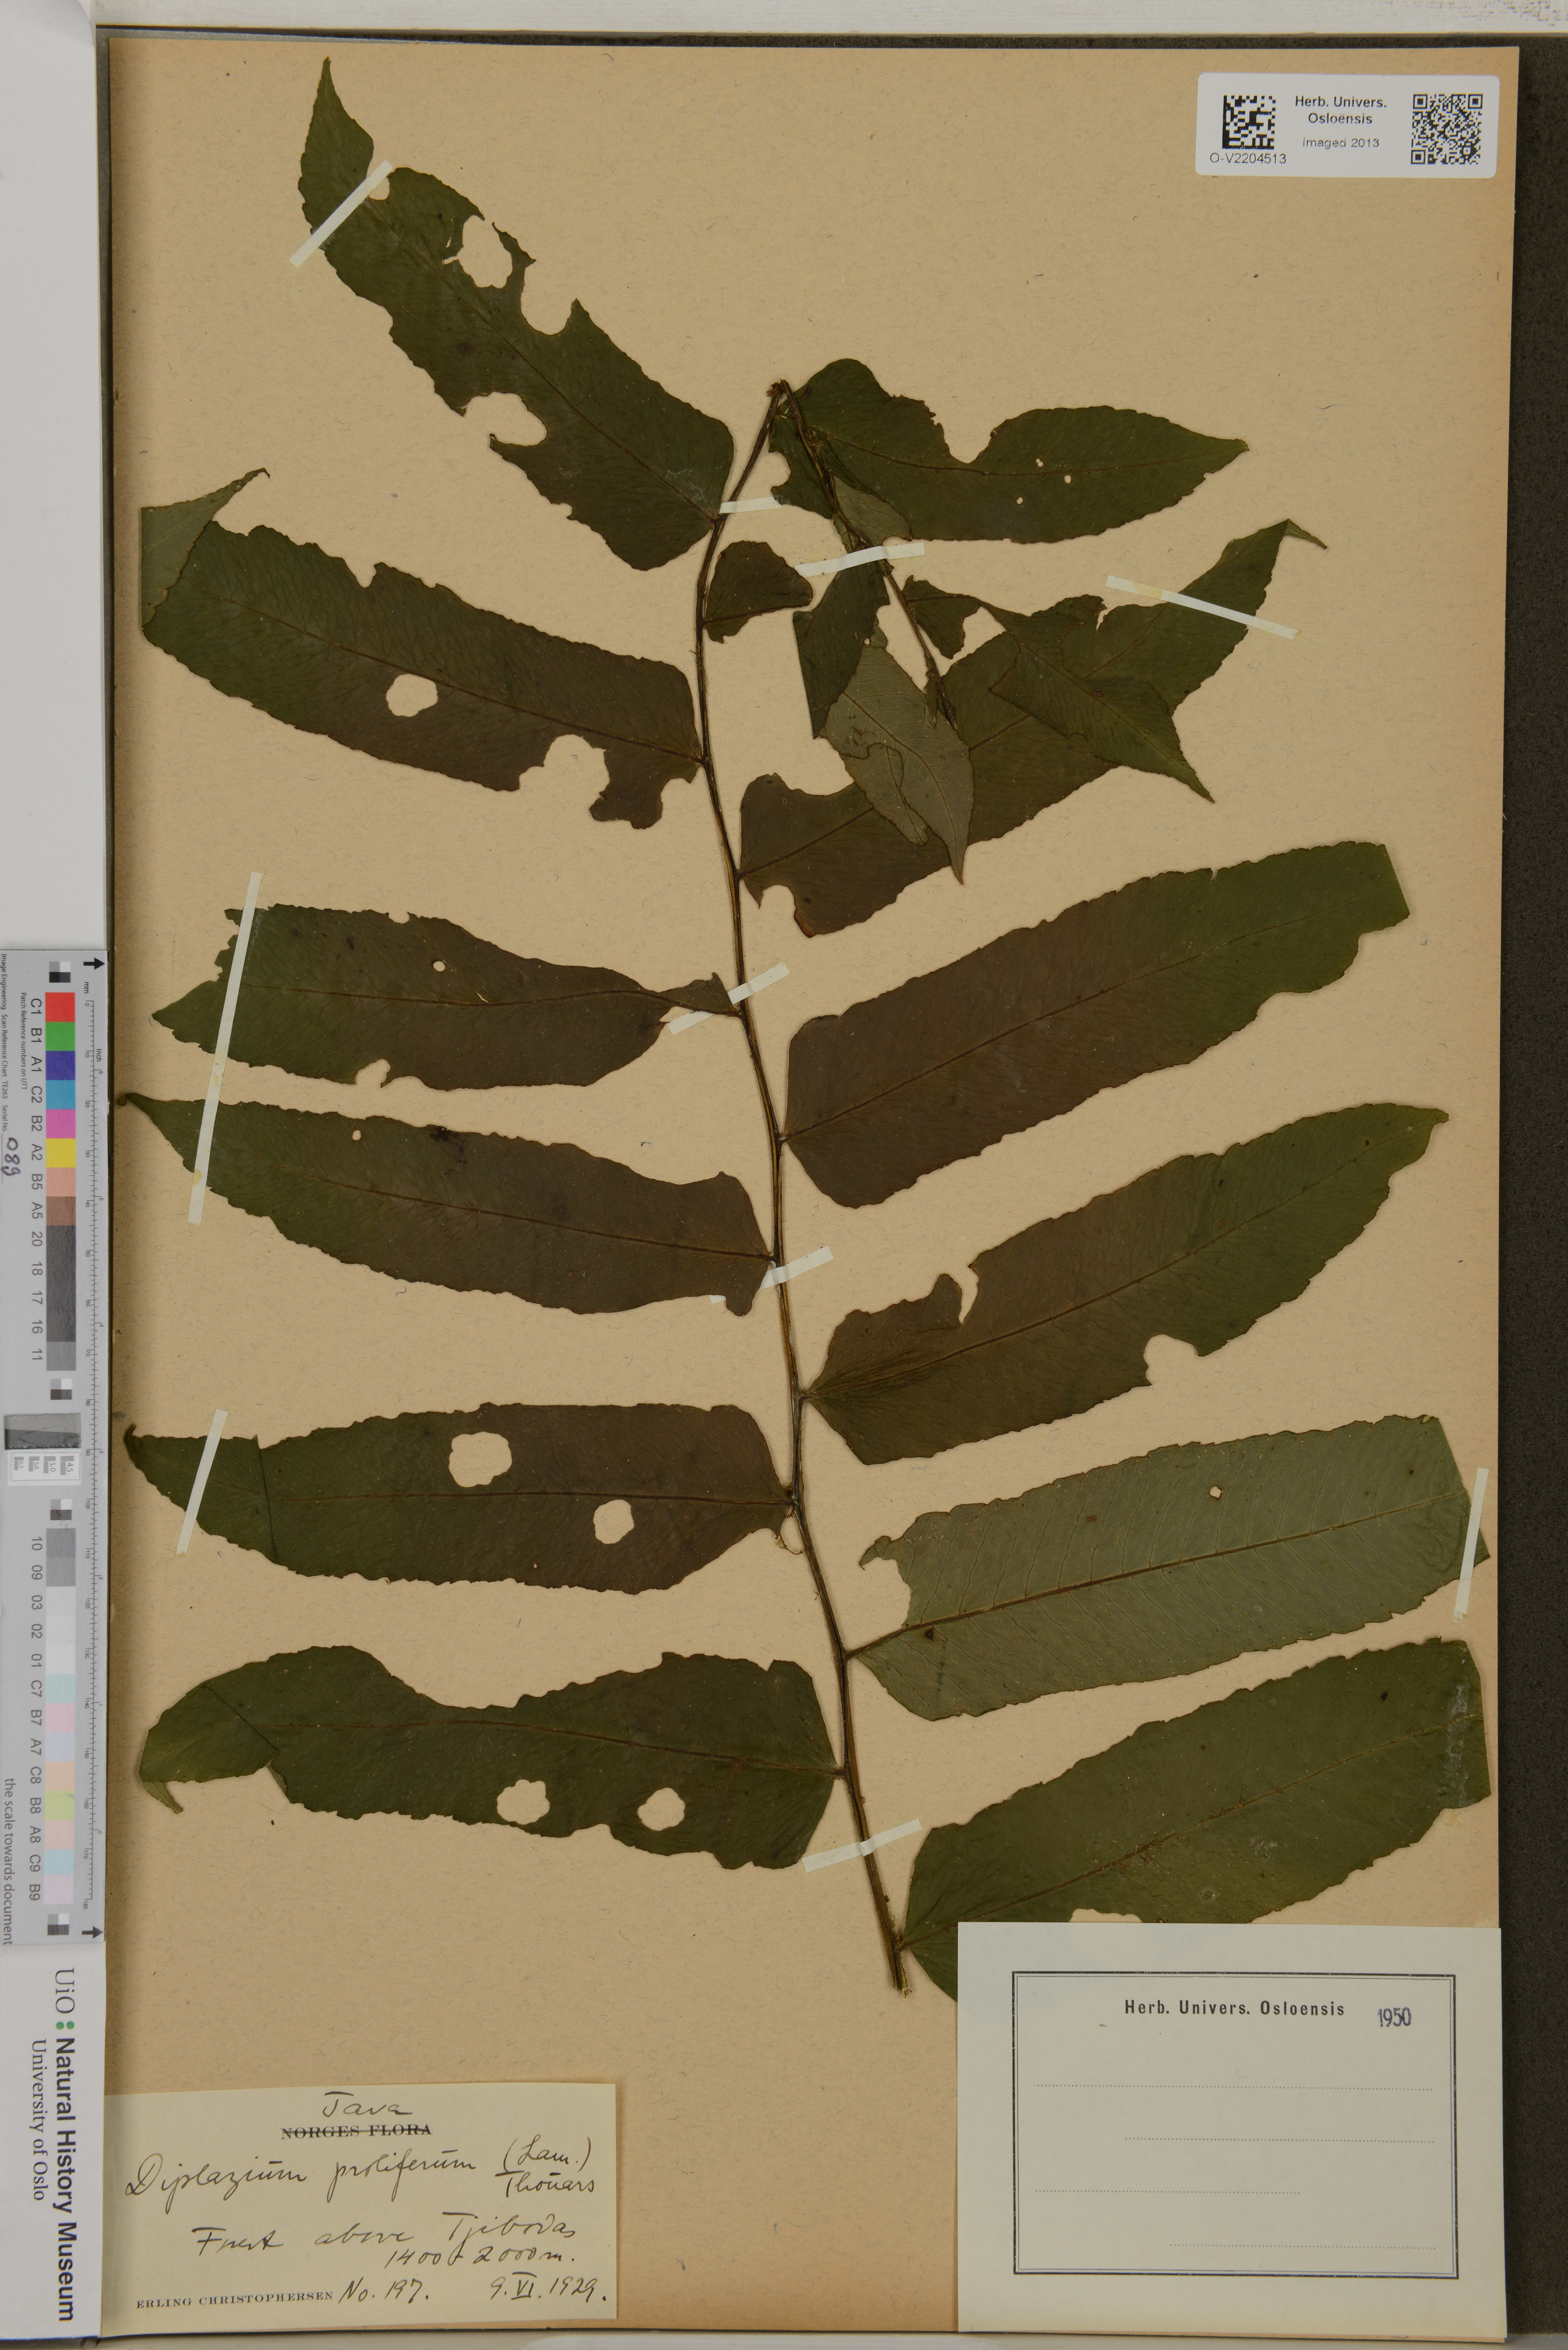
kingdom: Plantae
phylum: Tracheophyta
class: Polypodiopsida
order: Polypodiales
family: Athyriaceae
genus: Diplazium
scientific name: Diplazium proliferum
